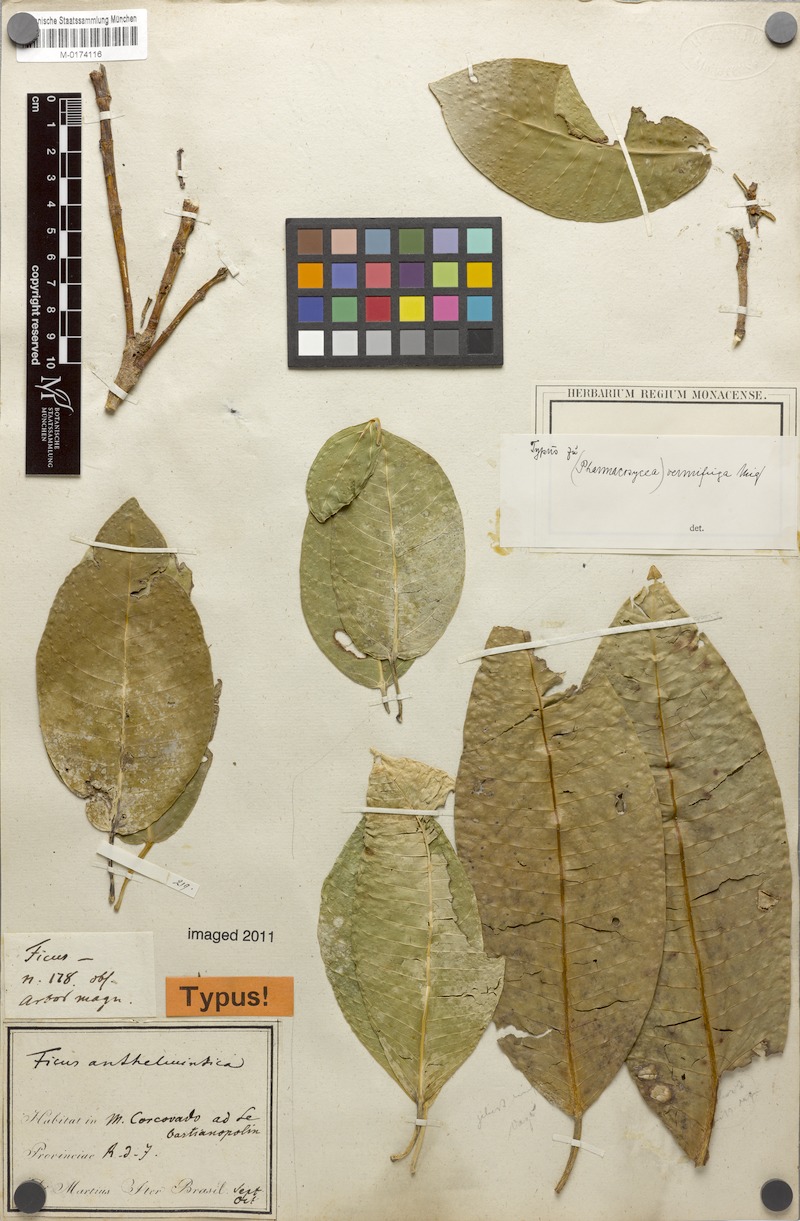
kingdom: Plantae
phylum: Tracheophyta
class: Magnoliopsida
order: Rosales
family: Moraceae
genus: Ficus
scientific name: Ficus adhatodifolia
